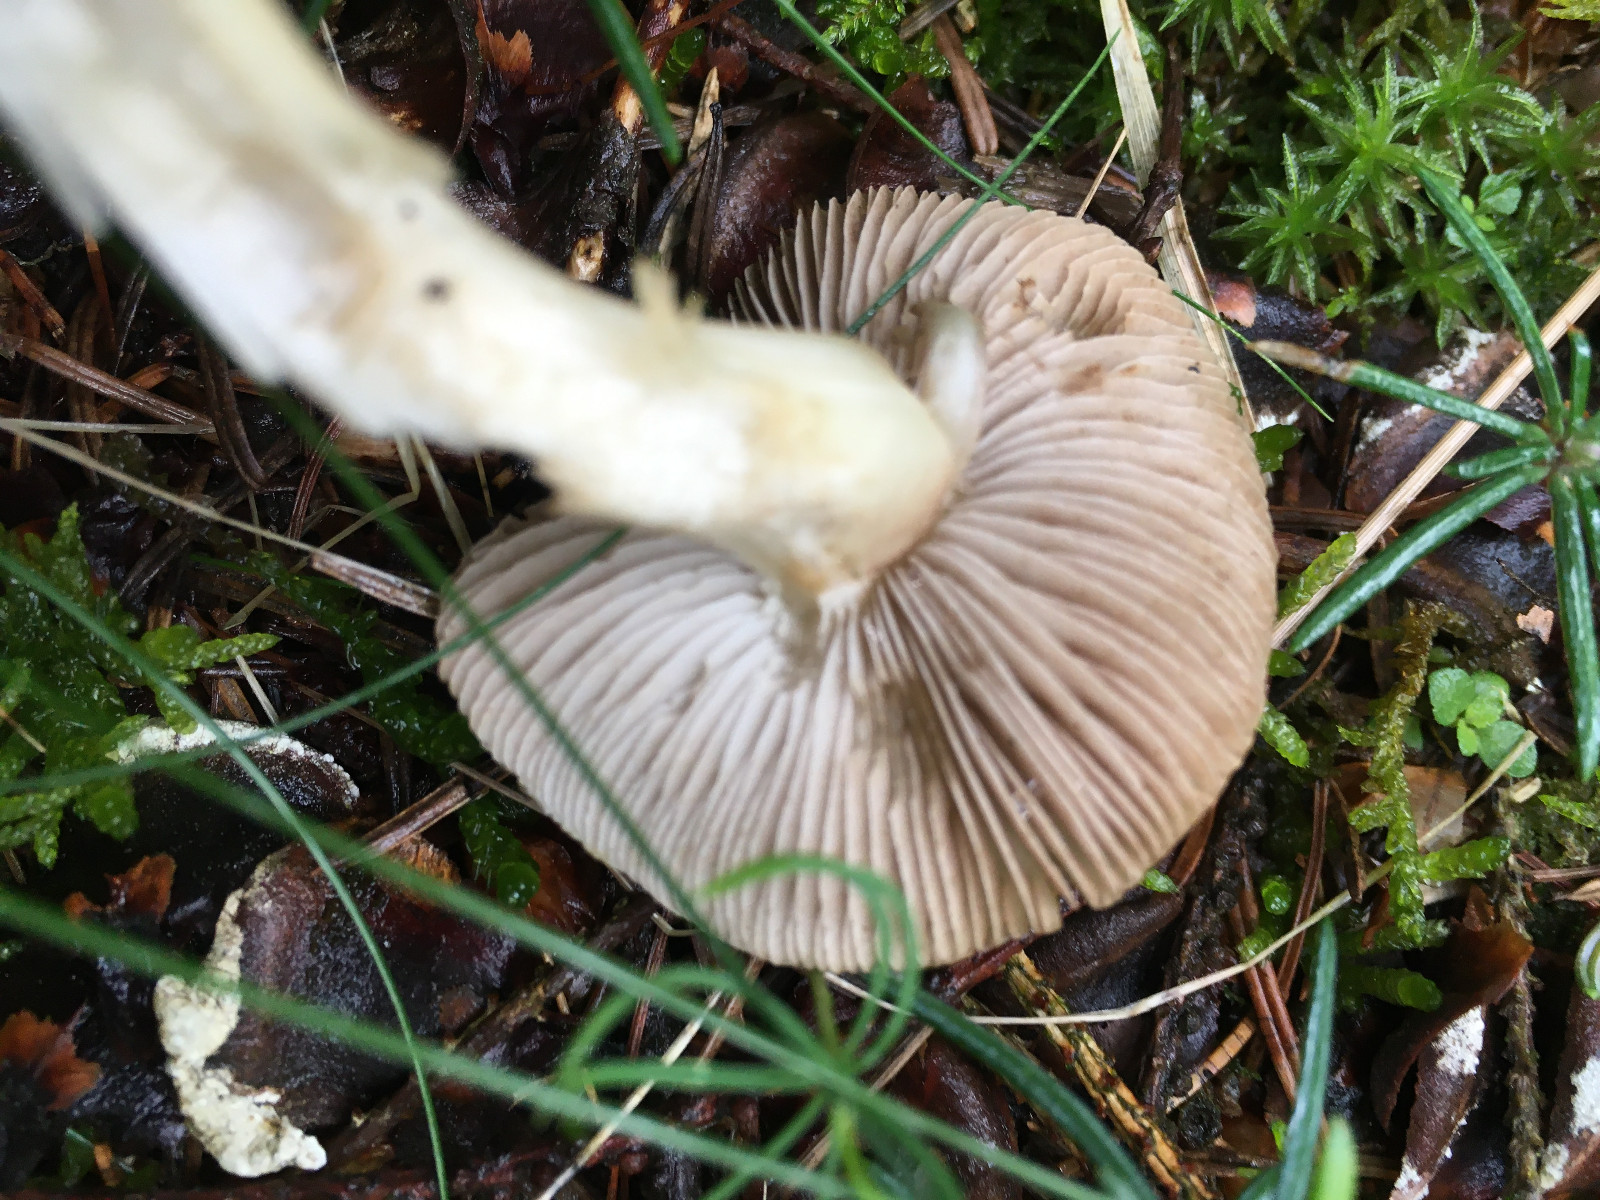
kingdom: Fungi
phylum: Basidiomycota
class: Agaricomycetes
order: Agaricales
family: Inocybaceae
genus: Inocybe
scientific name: Inocybe
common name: trævlhat
